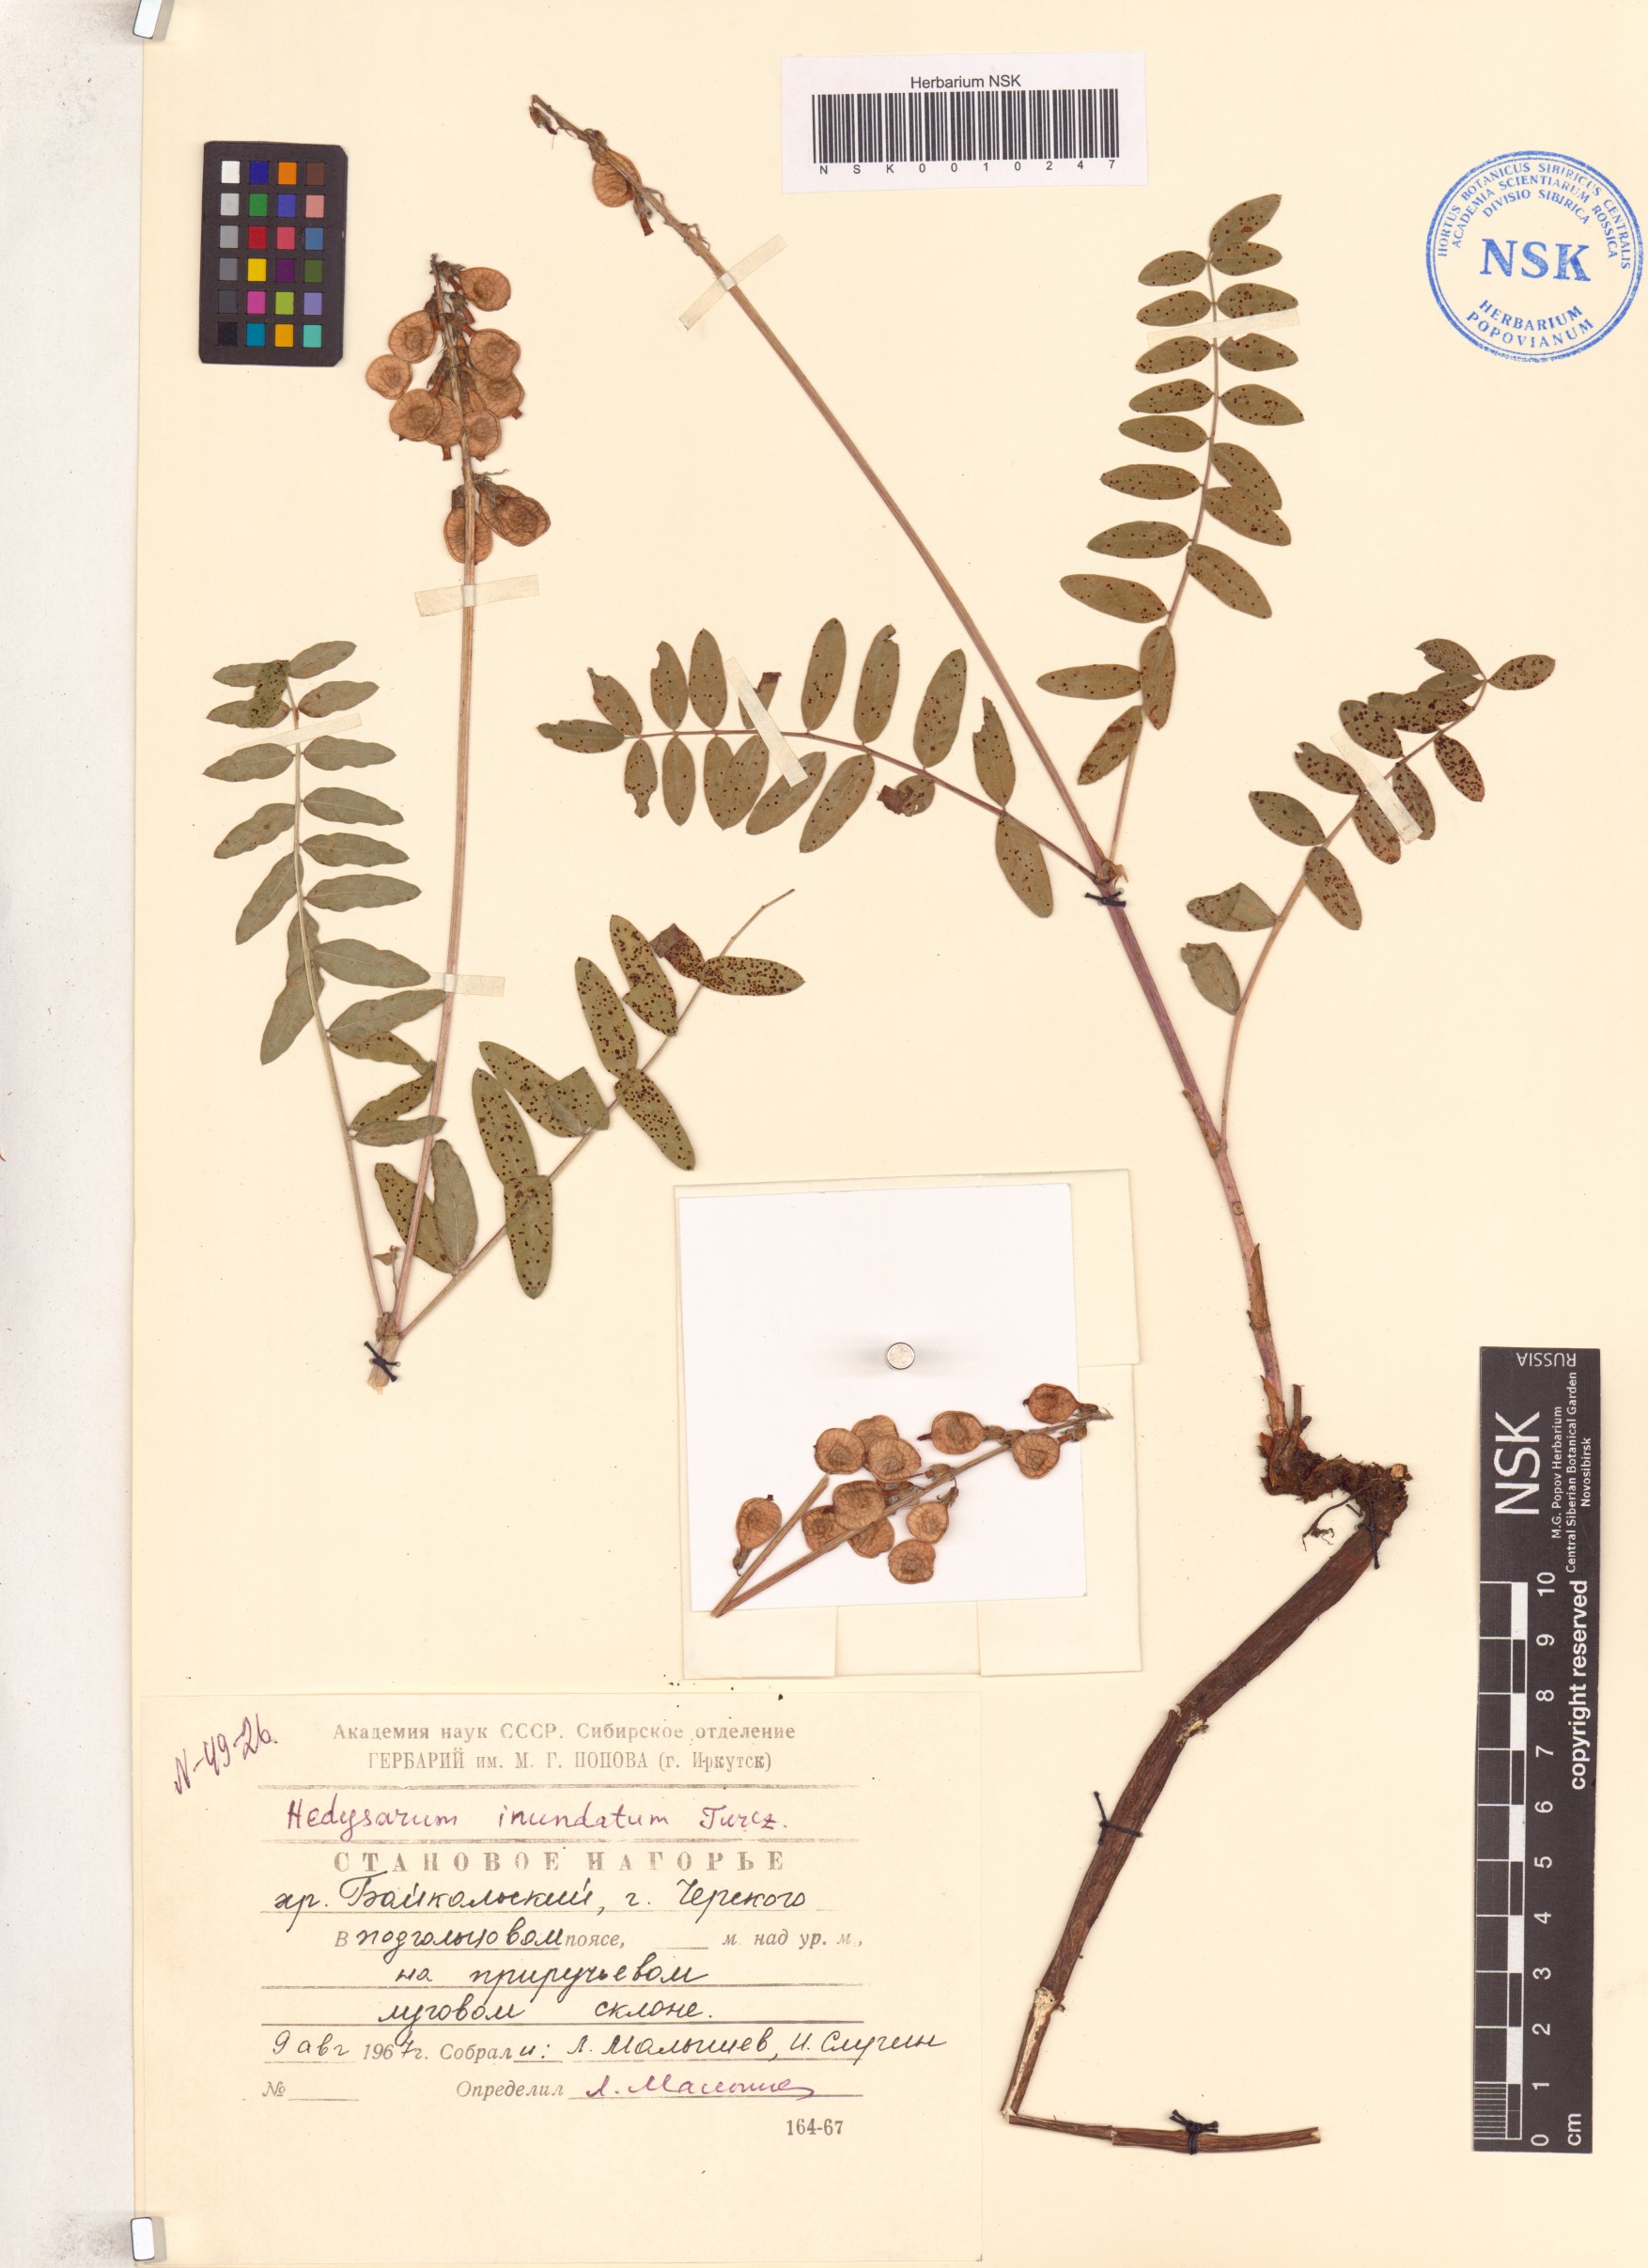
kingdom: Plantae
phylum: Tracheophyta
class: Magnoliopsida
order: Fabales
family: Fabaceae
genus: Hedysarum
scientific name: Hedysarum inundatum
